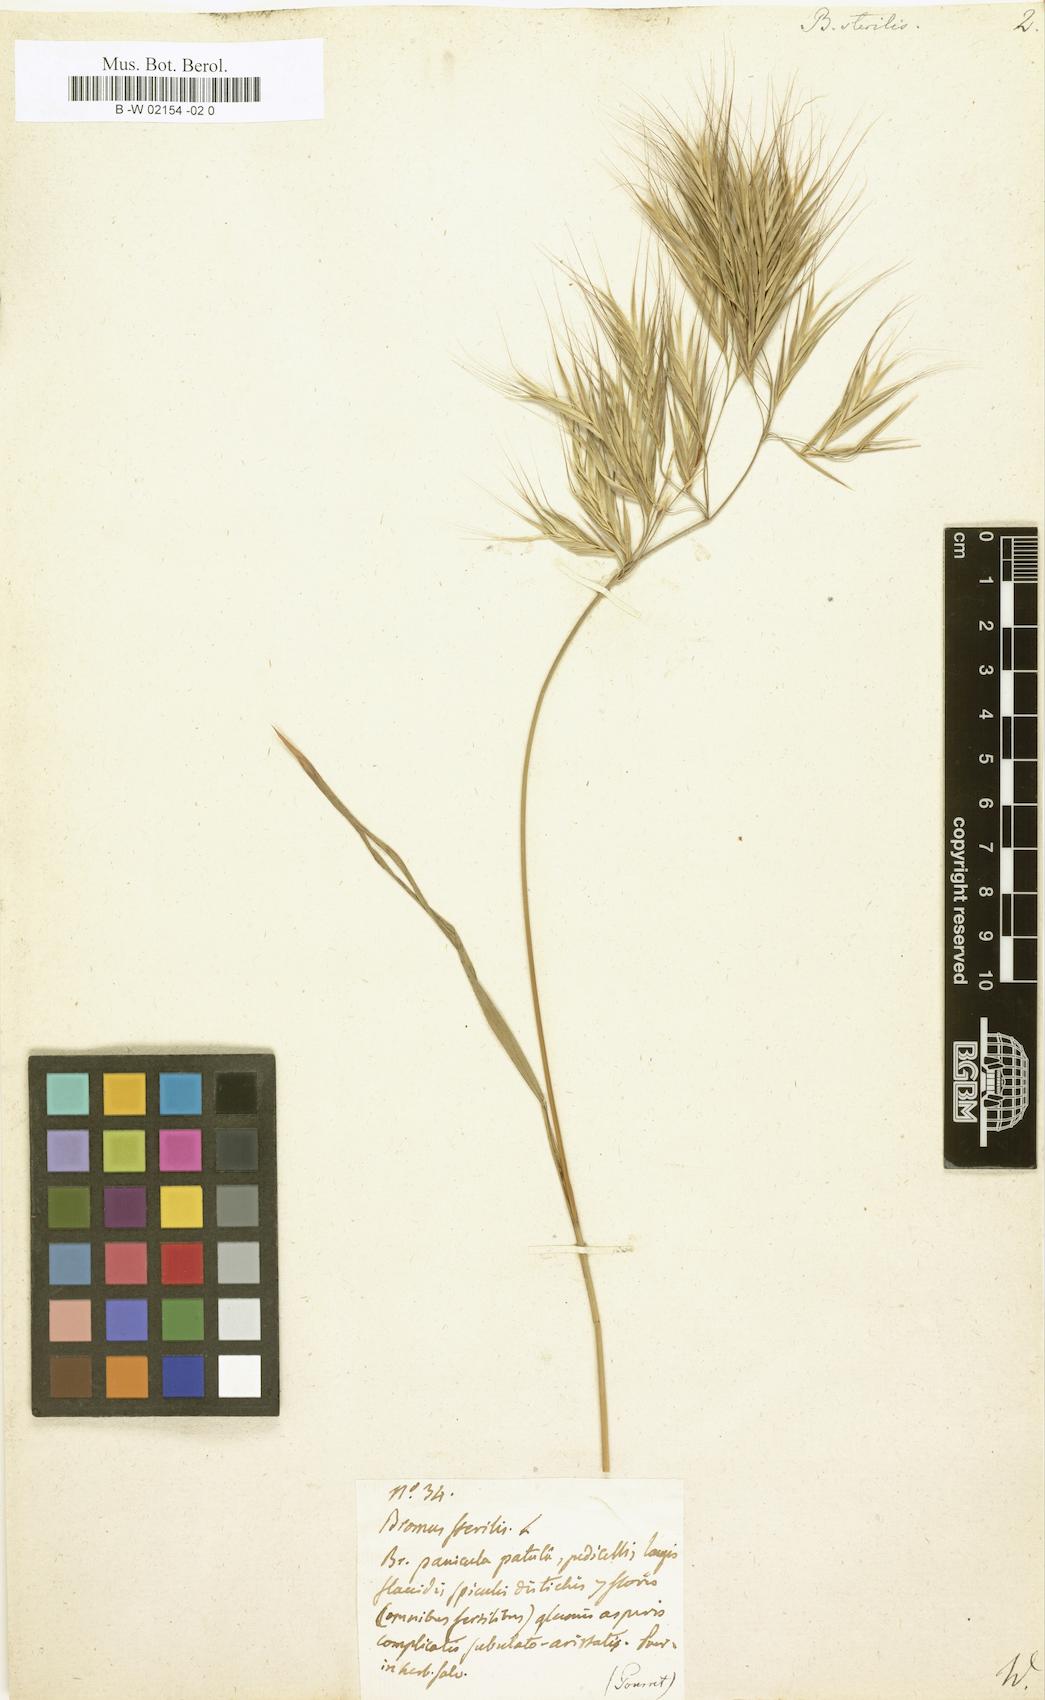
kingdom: Plantae
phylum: Tracheophyta
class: Liliopsida
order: Poales
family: Poaceae
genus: Bromus
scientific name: Bromus sterilis
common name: Poverty brome
